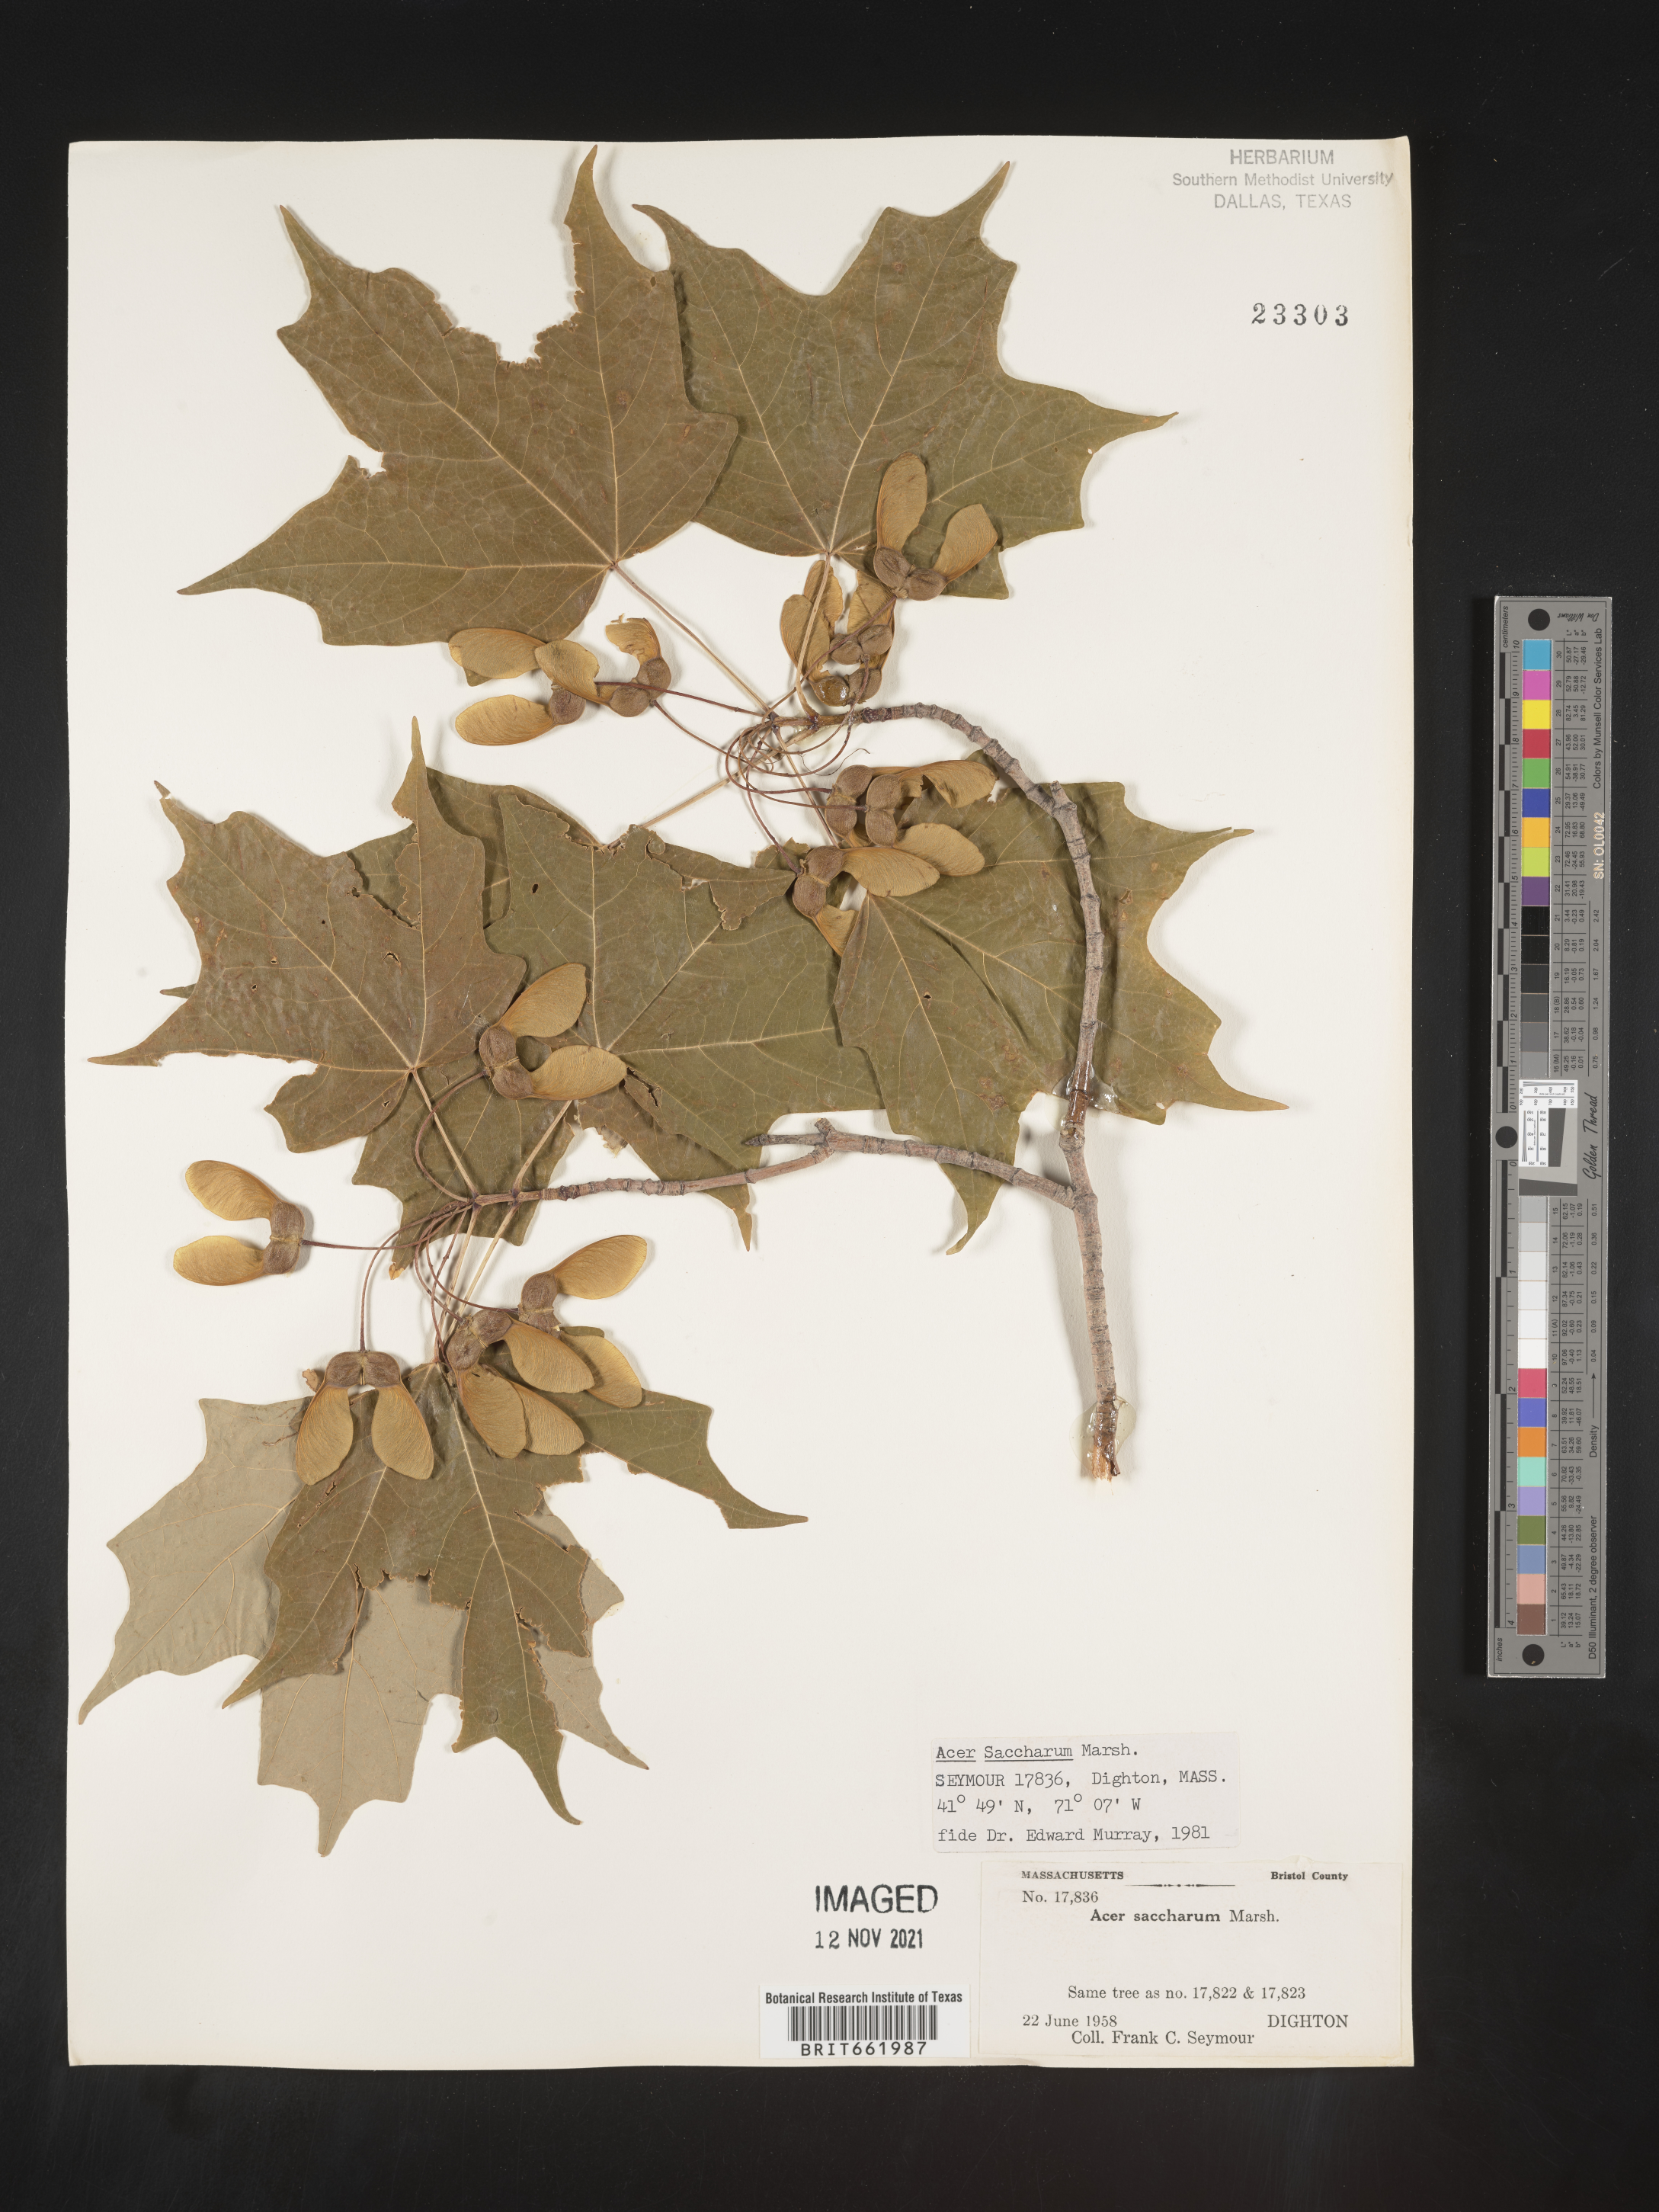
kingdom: Plantae
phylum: Tracheophyta
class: Magnoliopsida
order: Sapindales
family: Sapindaceae
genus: Acer
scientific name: Acer saccharum
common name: Sugar maple
